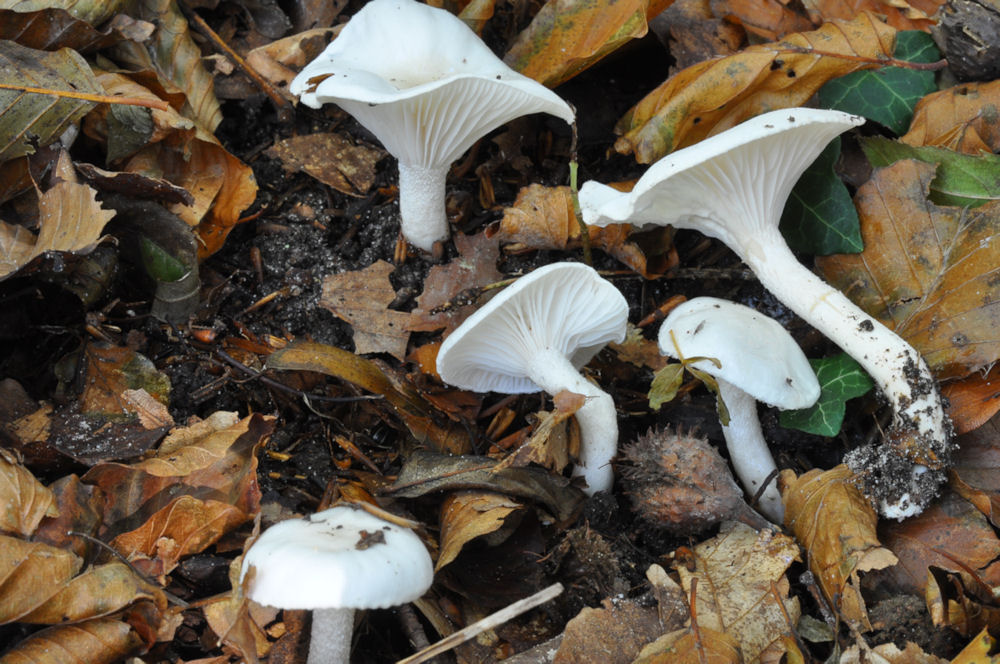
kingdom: Fungi
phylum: Basidiomycota
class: Agaricomycetes
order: Agaricales
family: Hygrophoraceae
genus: Hygrophorus
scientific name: Hygrophorus discoxanthus
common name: ildelugtende sneglehat
